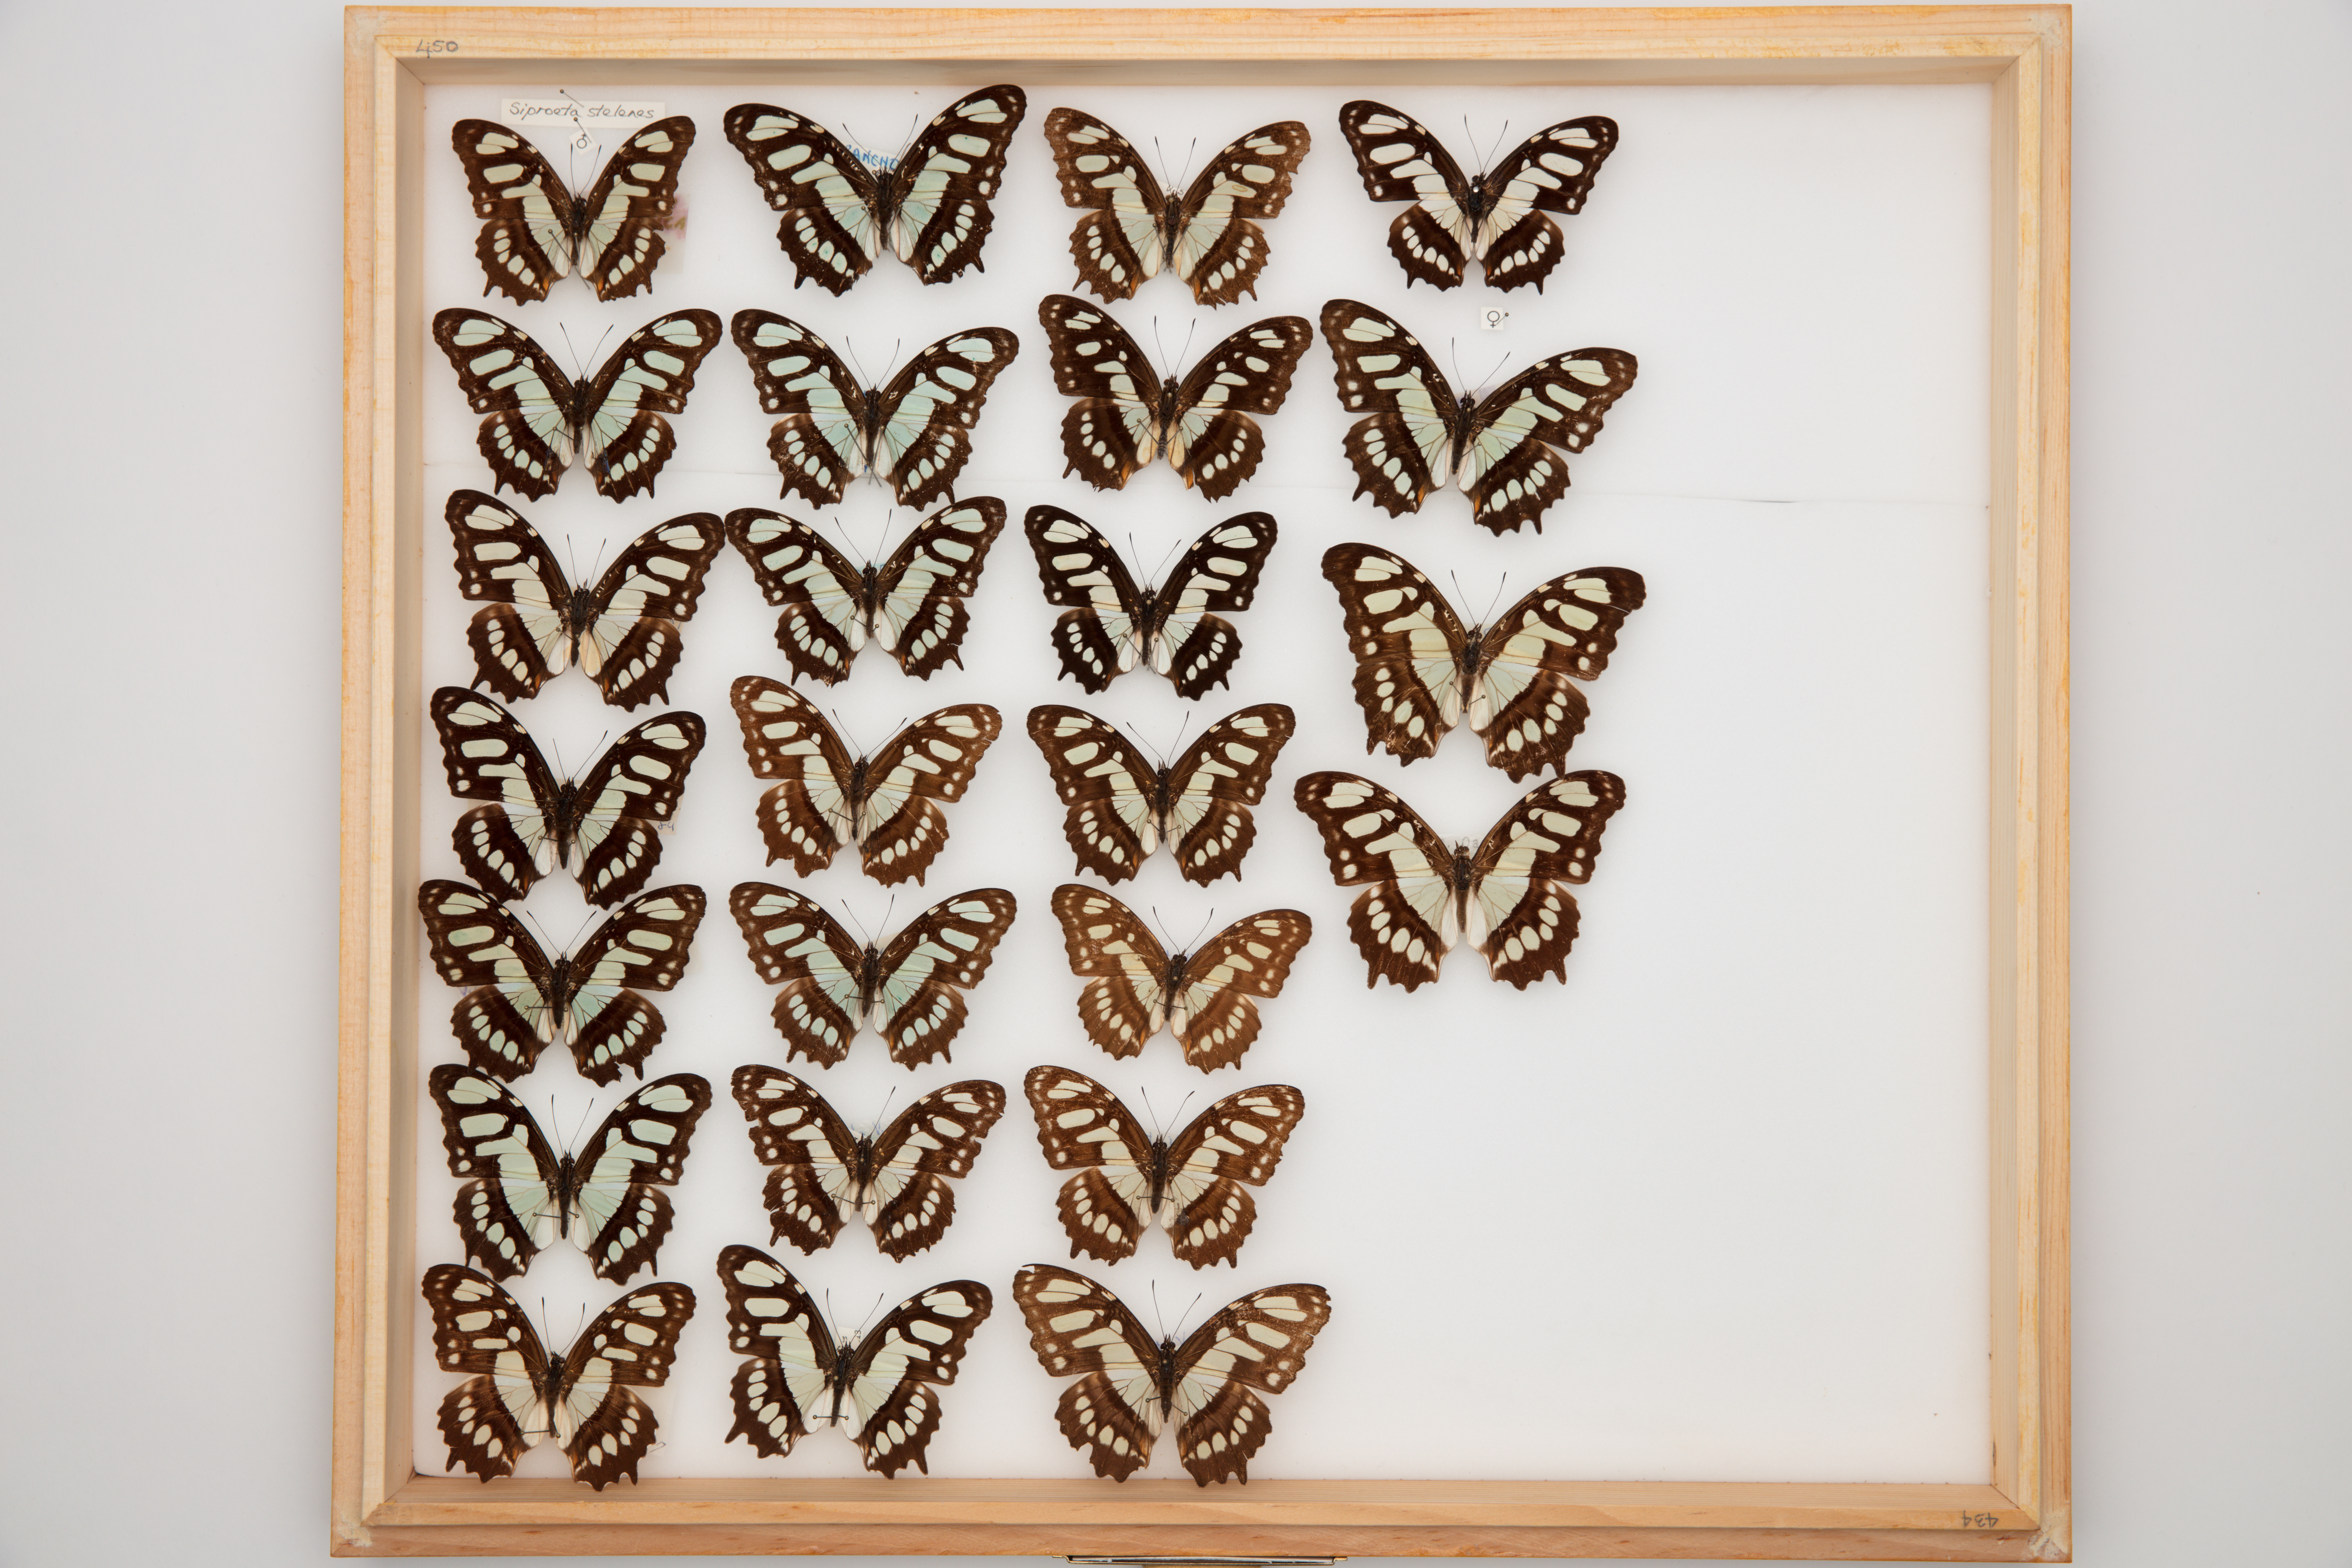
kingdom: Animalia
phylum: Arthropoda
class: Insecta
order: Lepidoptera
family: Nymphalidae
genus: Siproeta
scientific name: Siproeta stelenes
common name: Malachite
